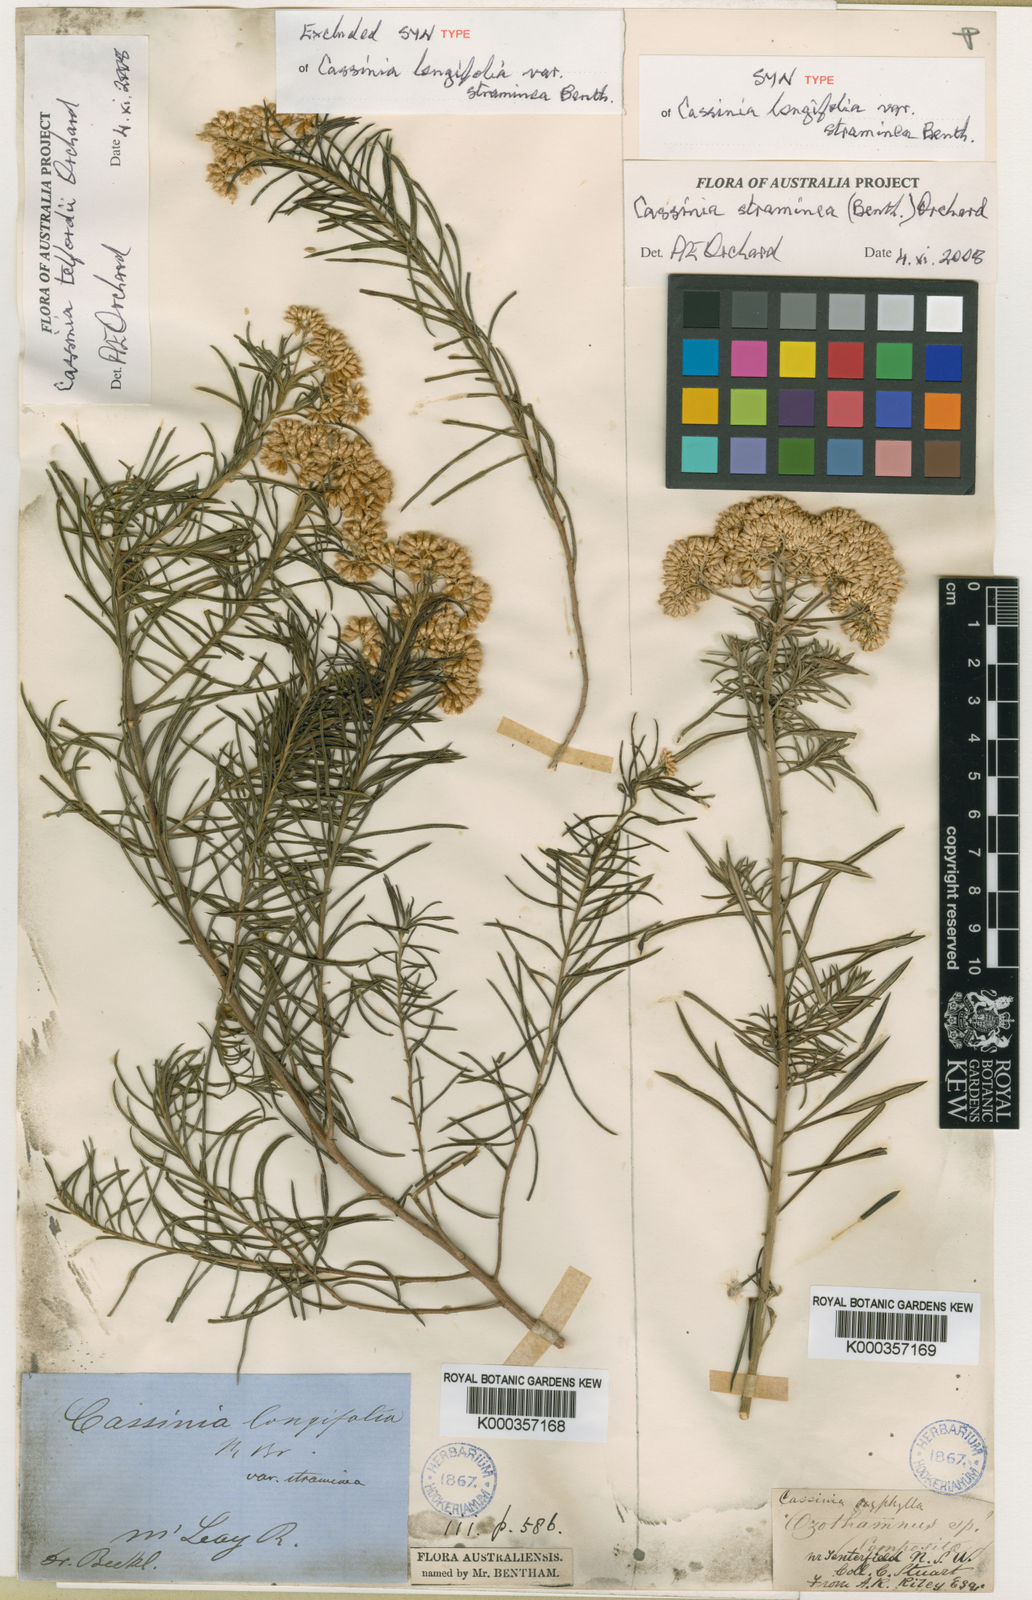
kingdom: Plantae
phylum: Tracheophyta
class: Magnoliopsida
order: Asterales
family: Asteraceae
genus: Cassinia
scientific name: Cassinia telfordii
